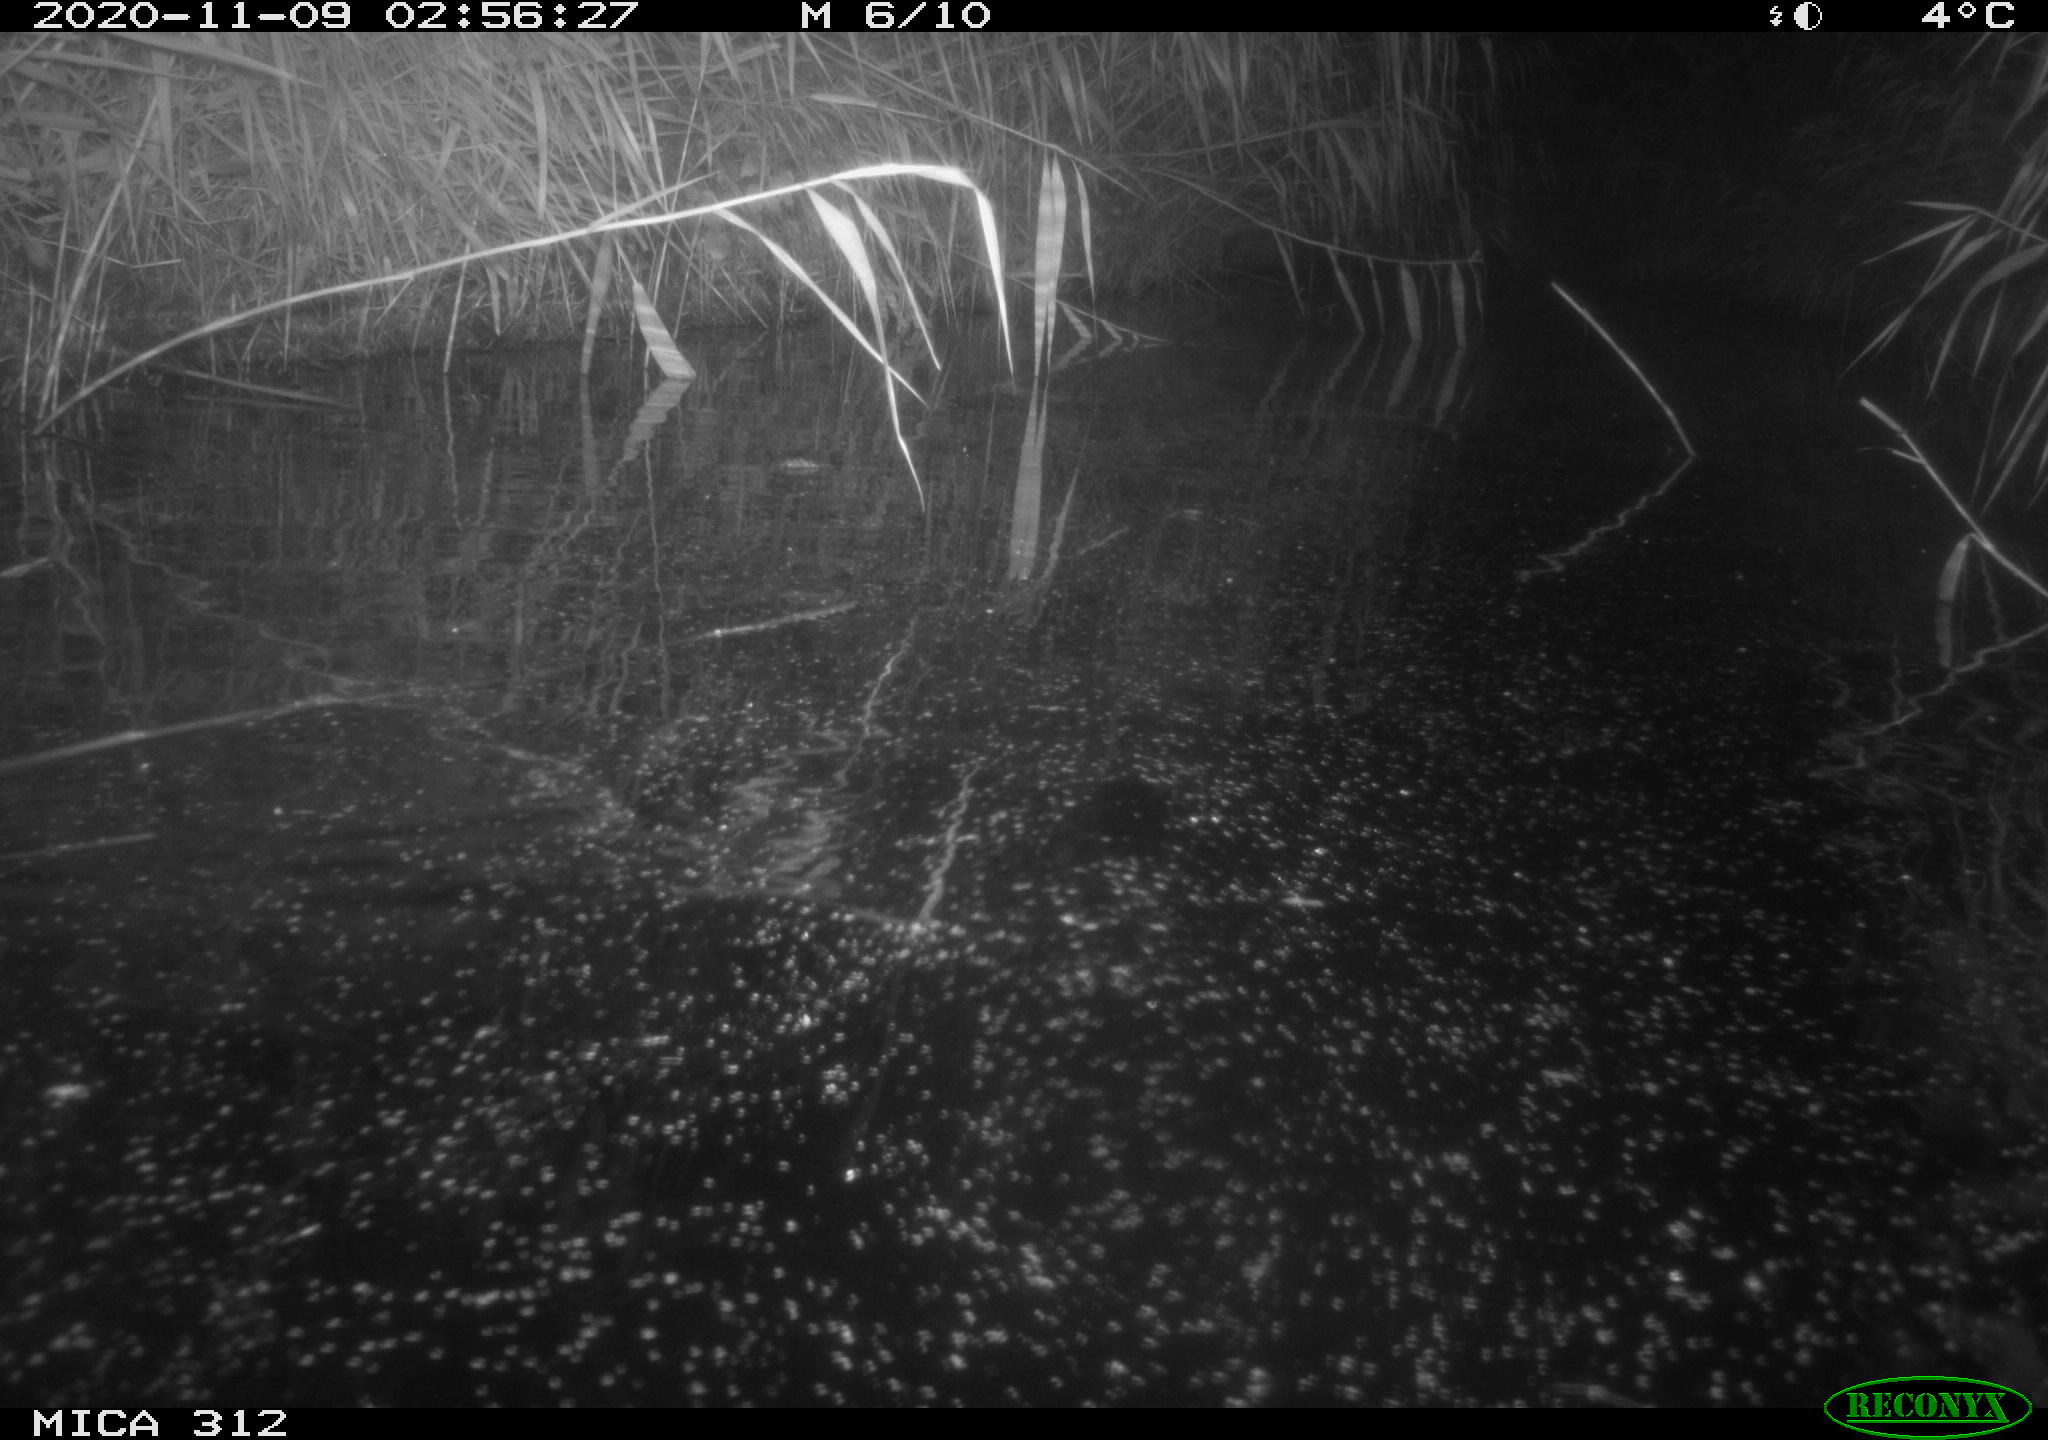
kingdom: Animalia
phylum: Chordata
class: Mammalia
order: Rodentia
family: Cricetidae
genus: Ondatra
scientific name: Ondatra zibethicus
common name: Muskrat
